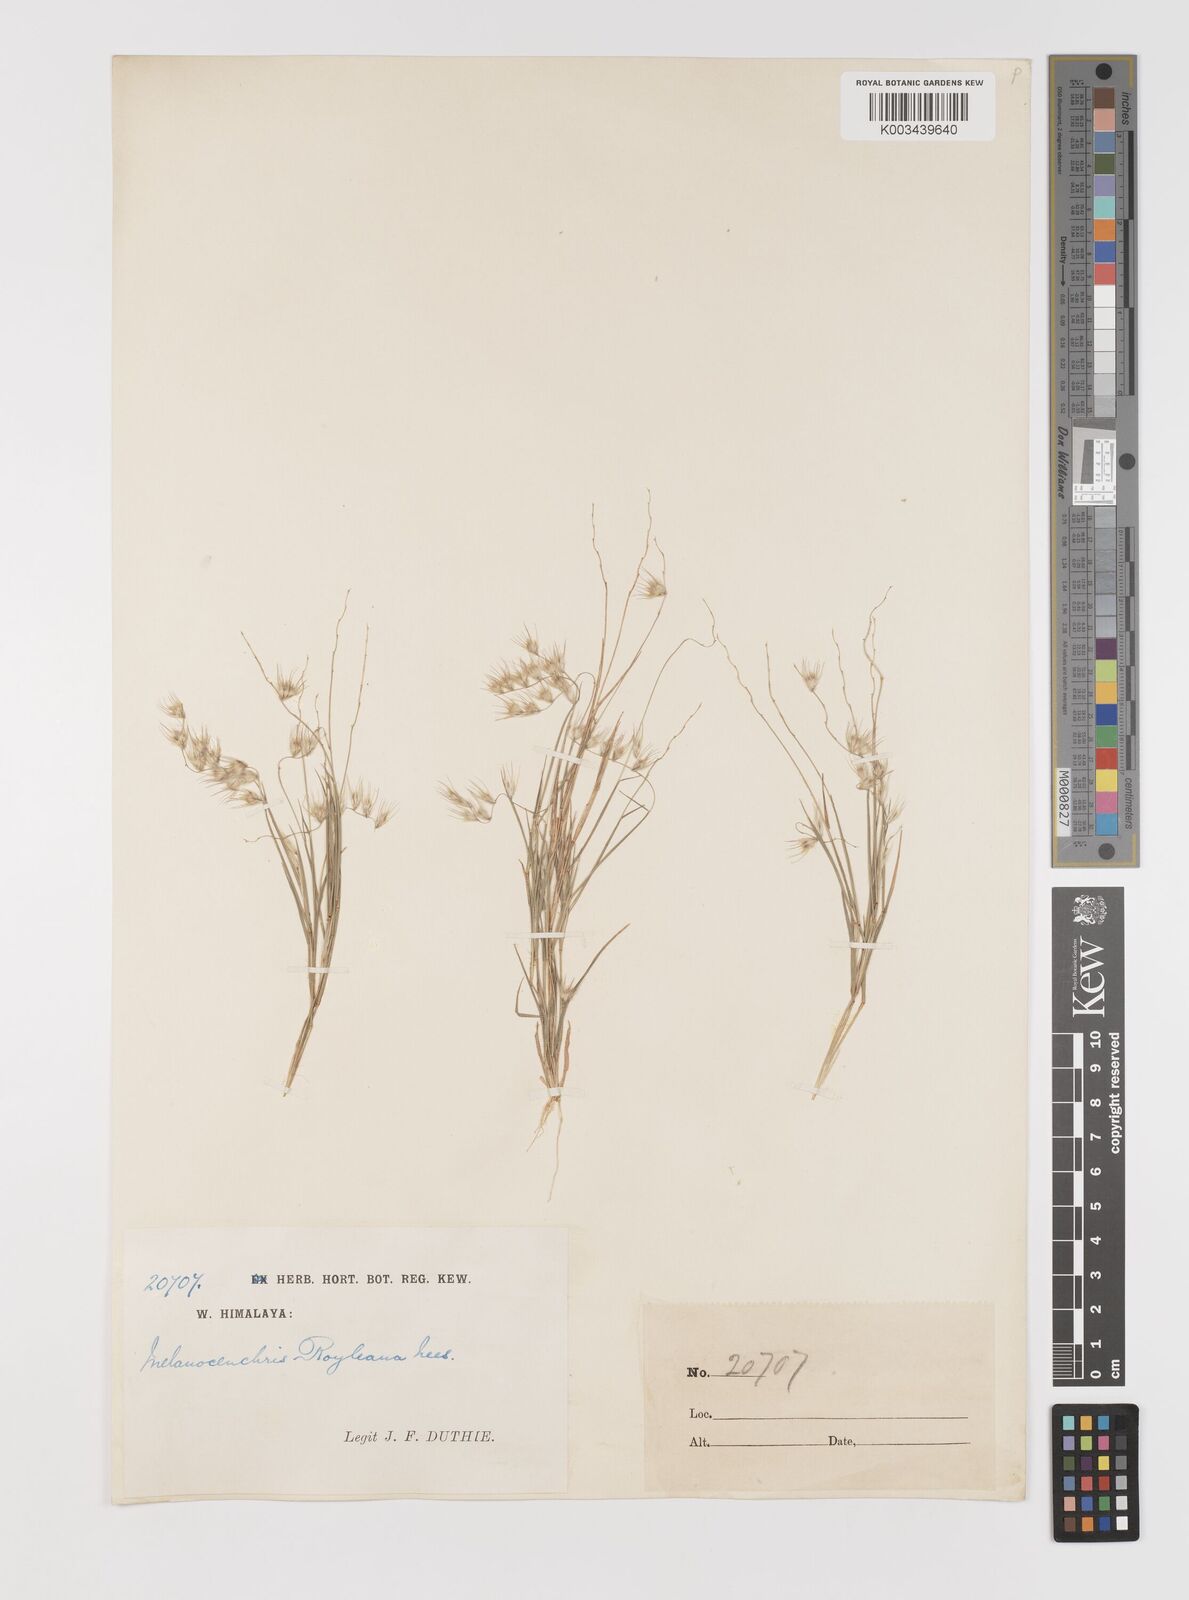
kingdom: Plantae
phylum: Tracheophyta
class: Liliopsida
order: Poales
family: Poaceae
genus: Melanocenchris
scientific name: Melanocenchris jacquemontii
